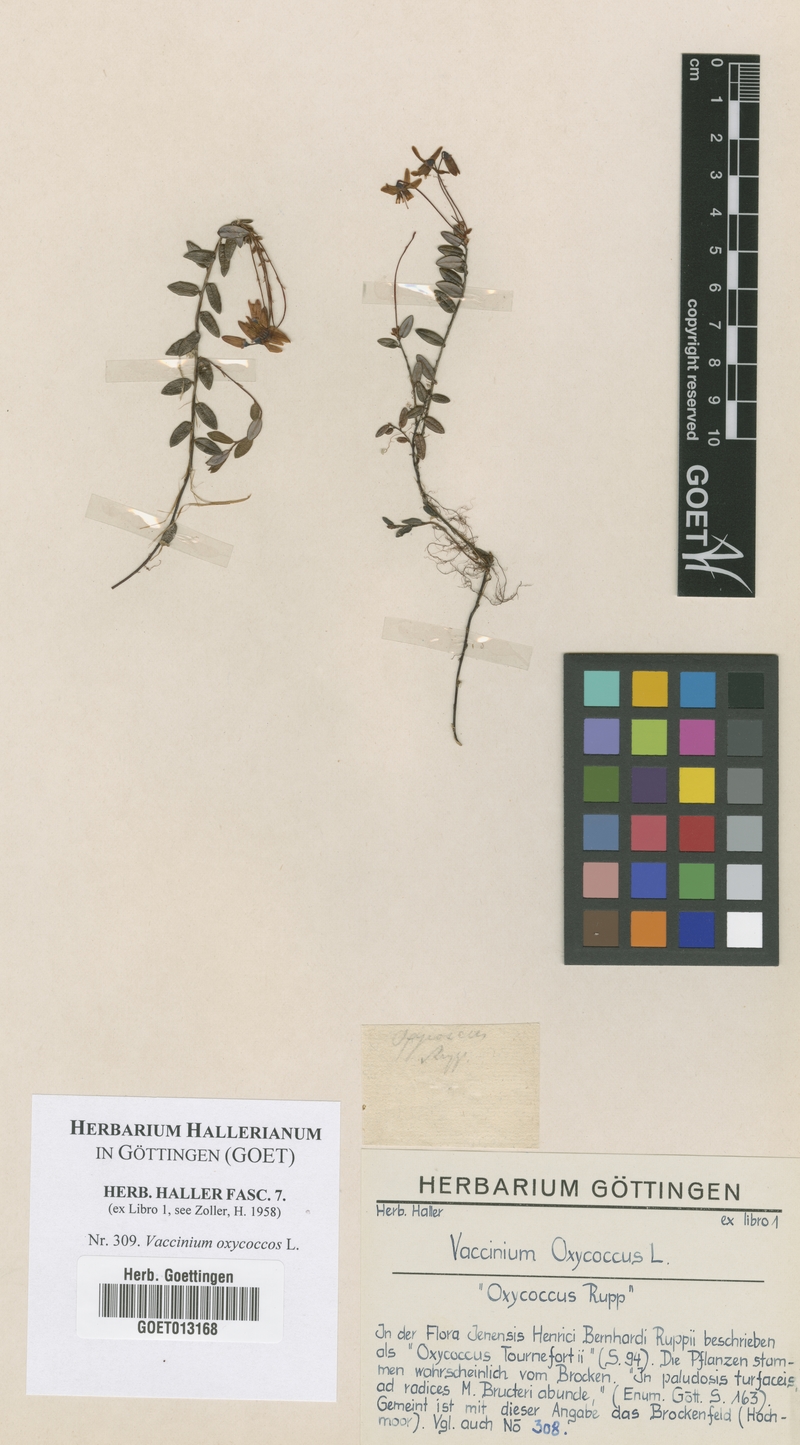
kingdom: Plantae
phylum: Tracheophyta
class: Magnoliopsida
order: Ericales
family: Ericaceae
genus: Vaccinium
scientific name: Vaccinium oxycoccos
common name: Cranberry
